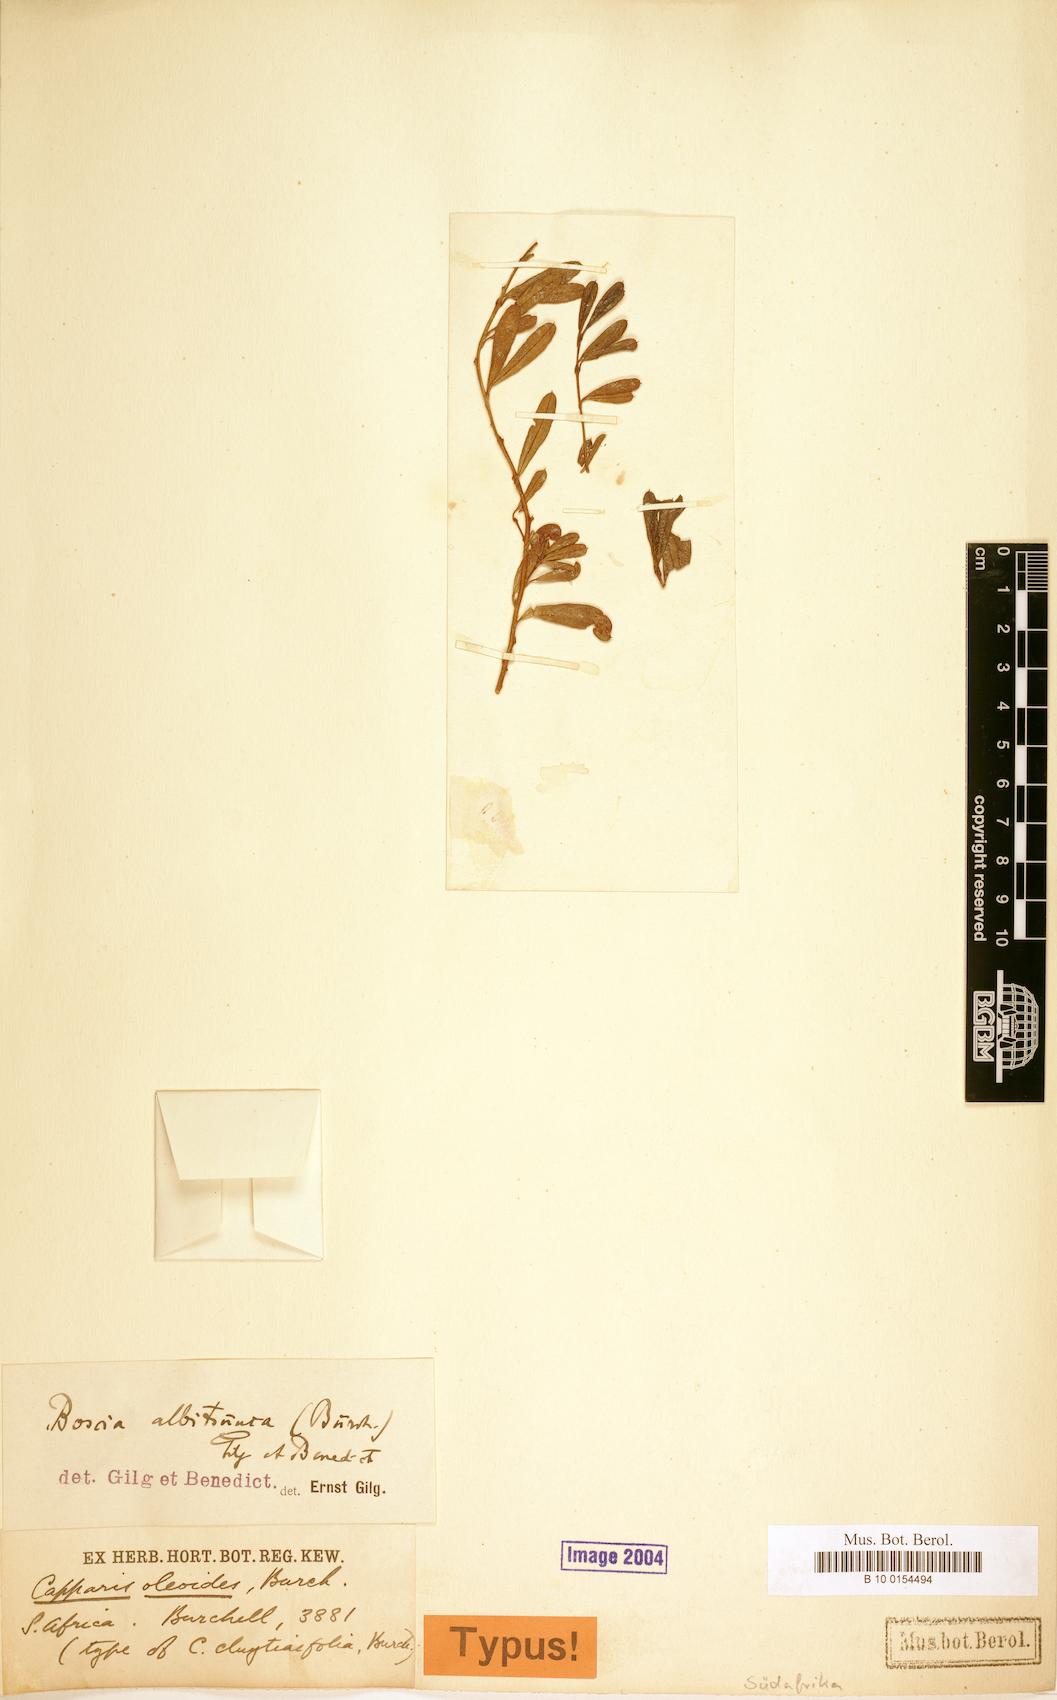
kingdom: Plantae
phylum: Tracheophyta
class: Magnoliopsida
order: Brassicales
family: Capparaceae
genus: Boscia
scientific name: Boscia albitrunca
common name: Caper bush
